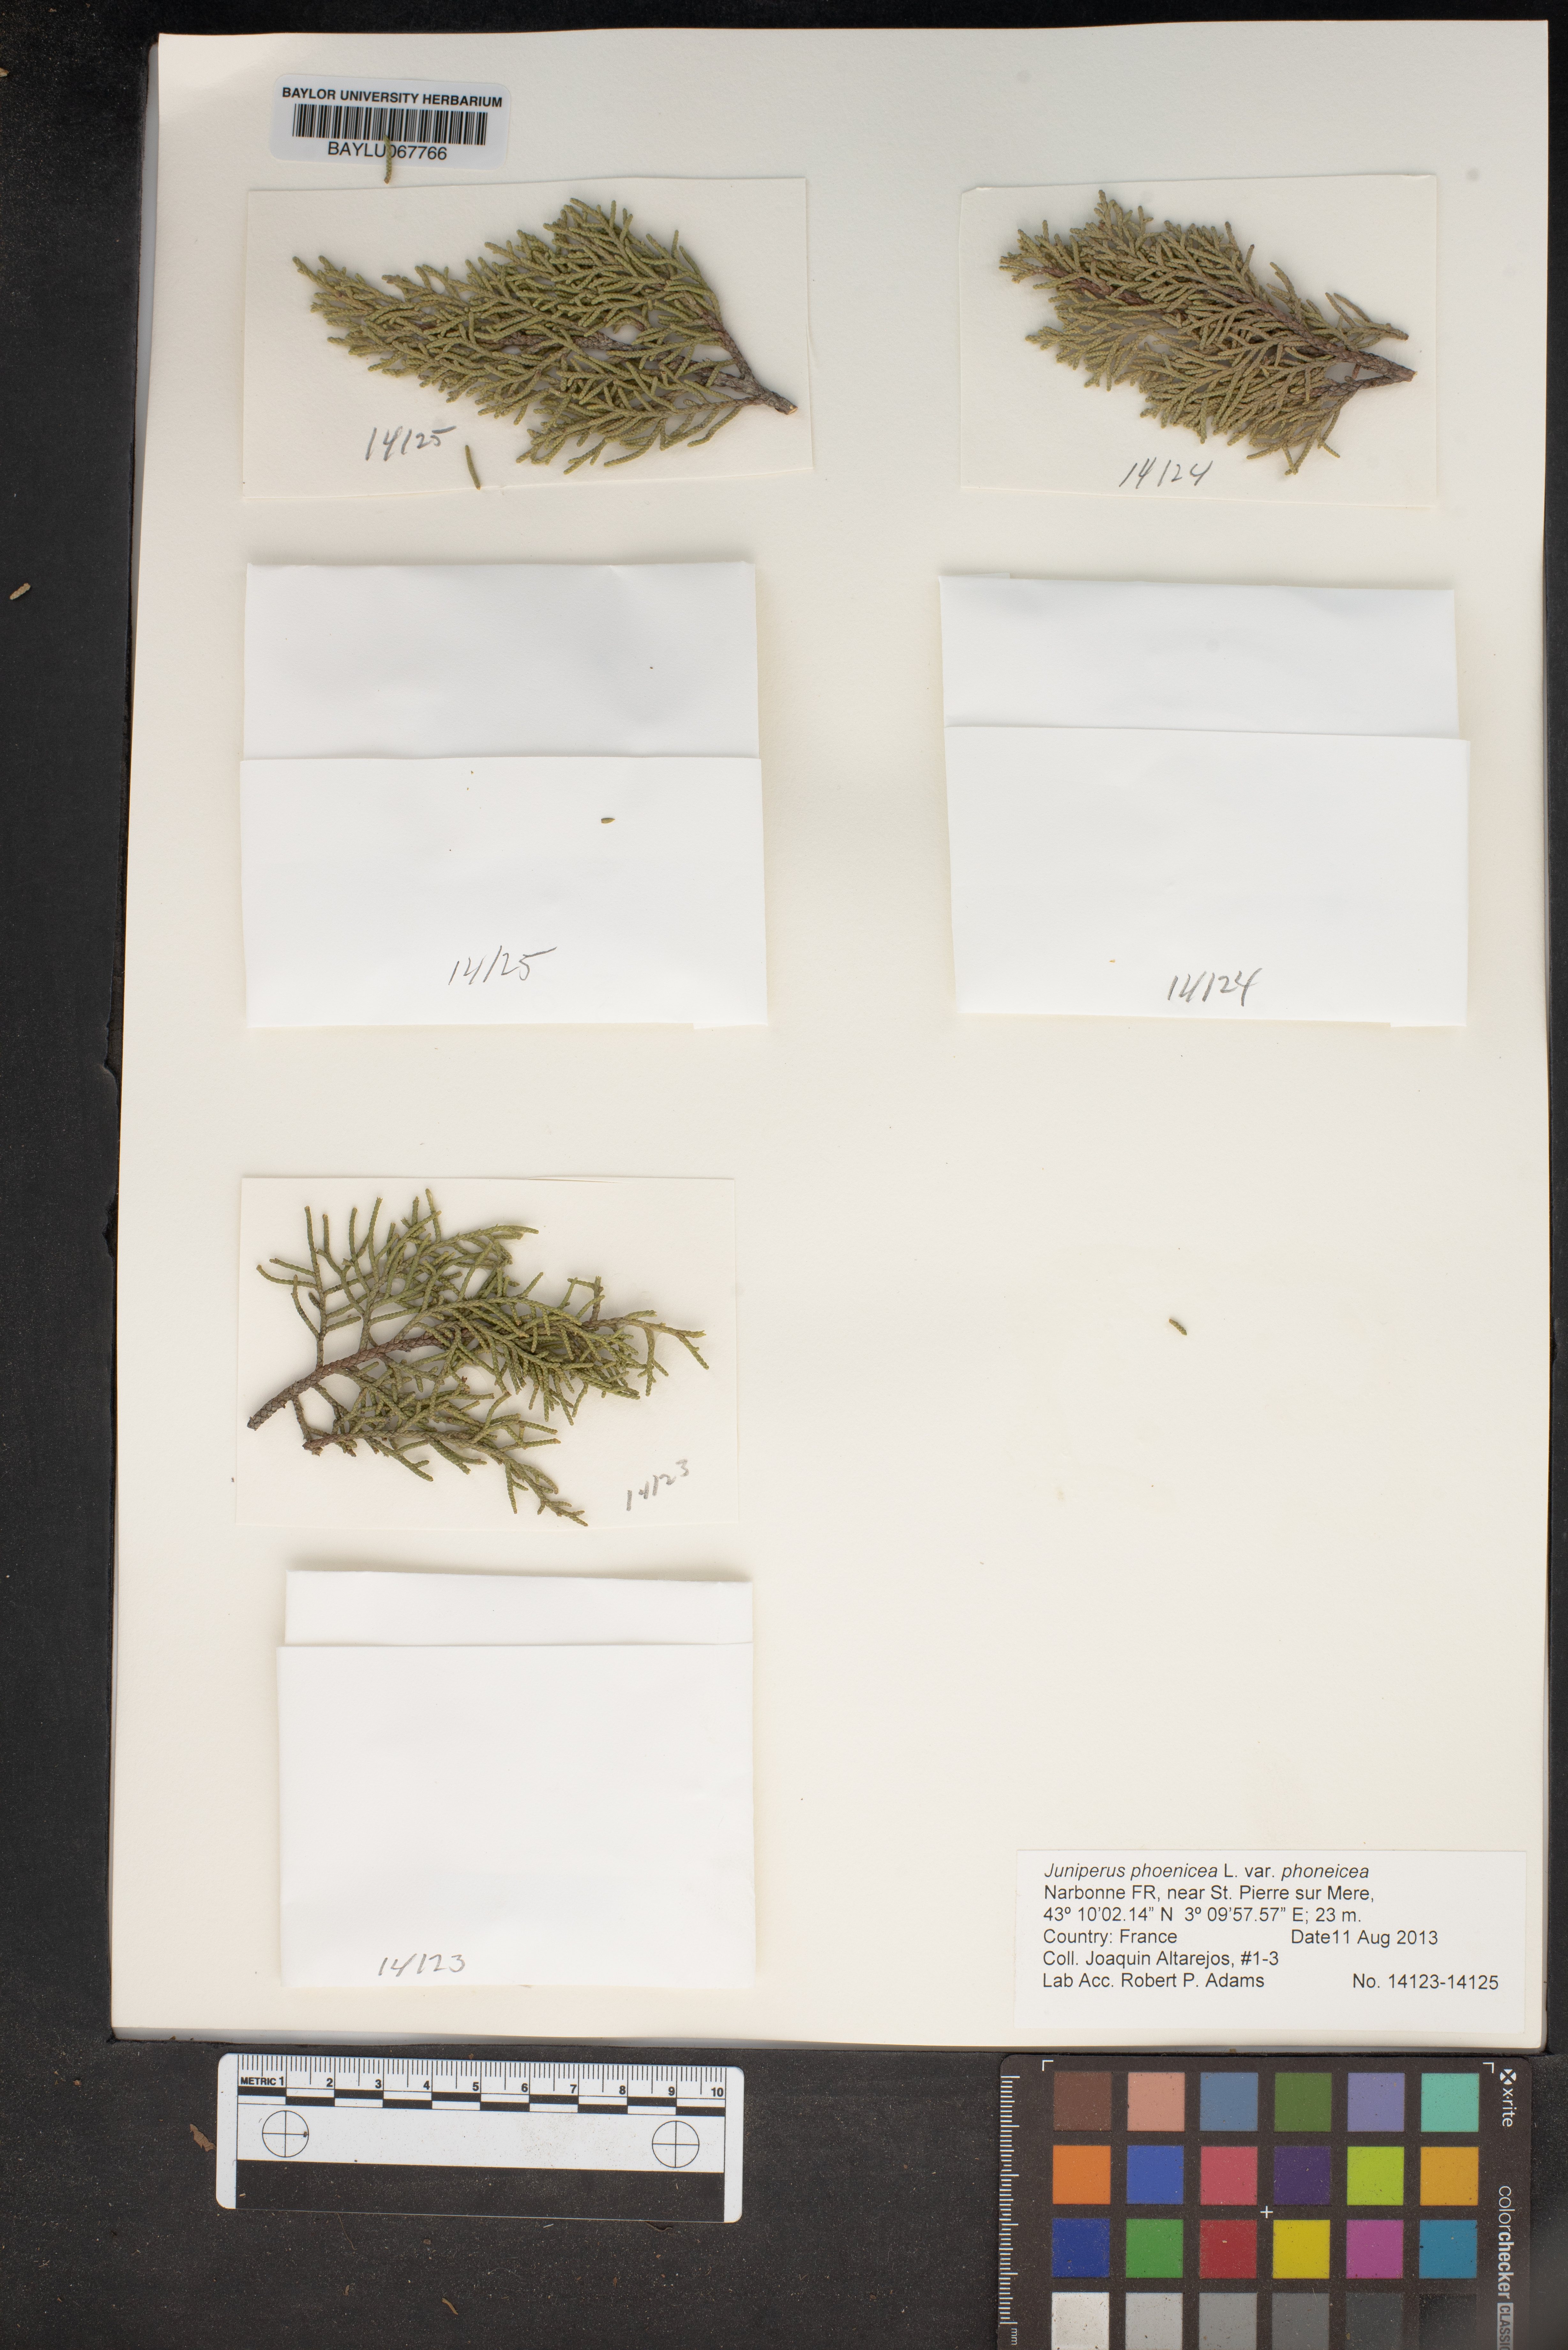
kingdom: Plantae
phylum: Tracheophyta
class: Pinopsida
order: Pinales
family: Cupressaceae
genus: Juniperus
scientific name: Juniperus phoenicea
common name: Phoenician juniper
